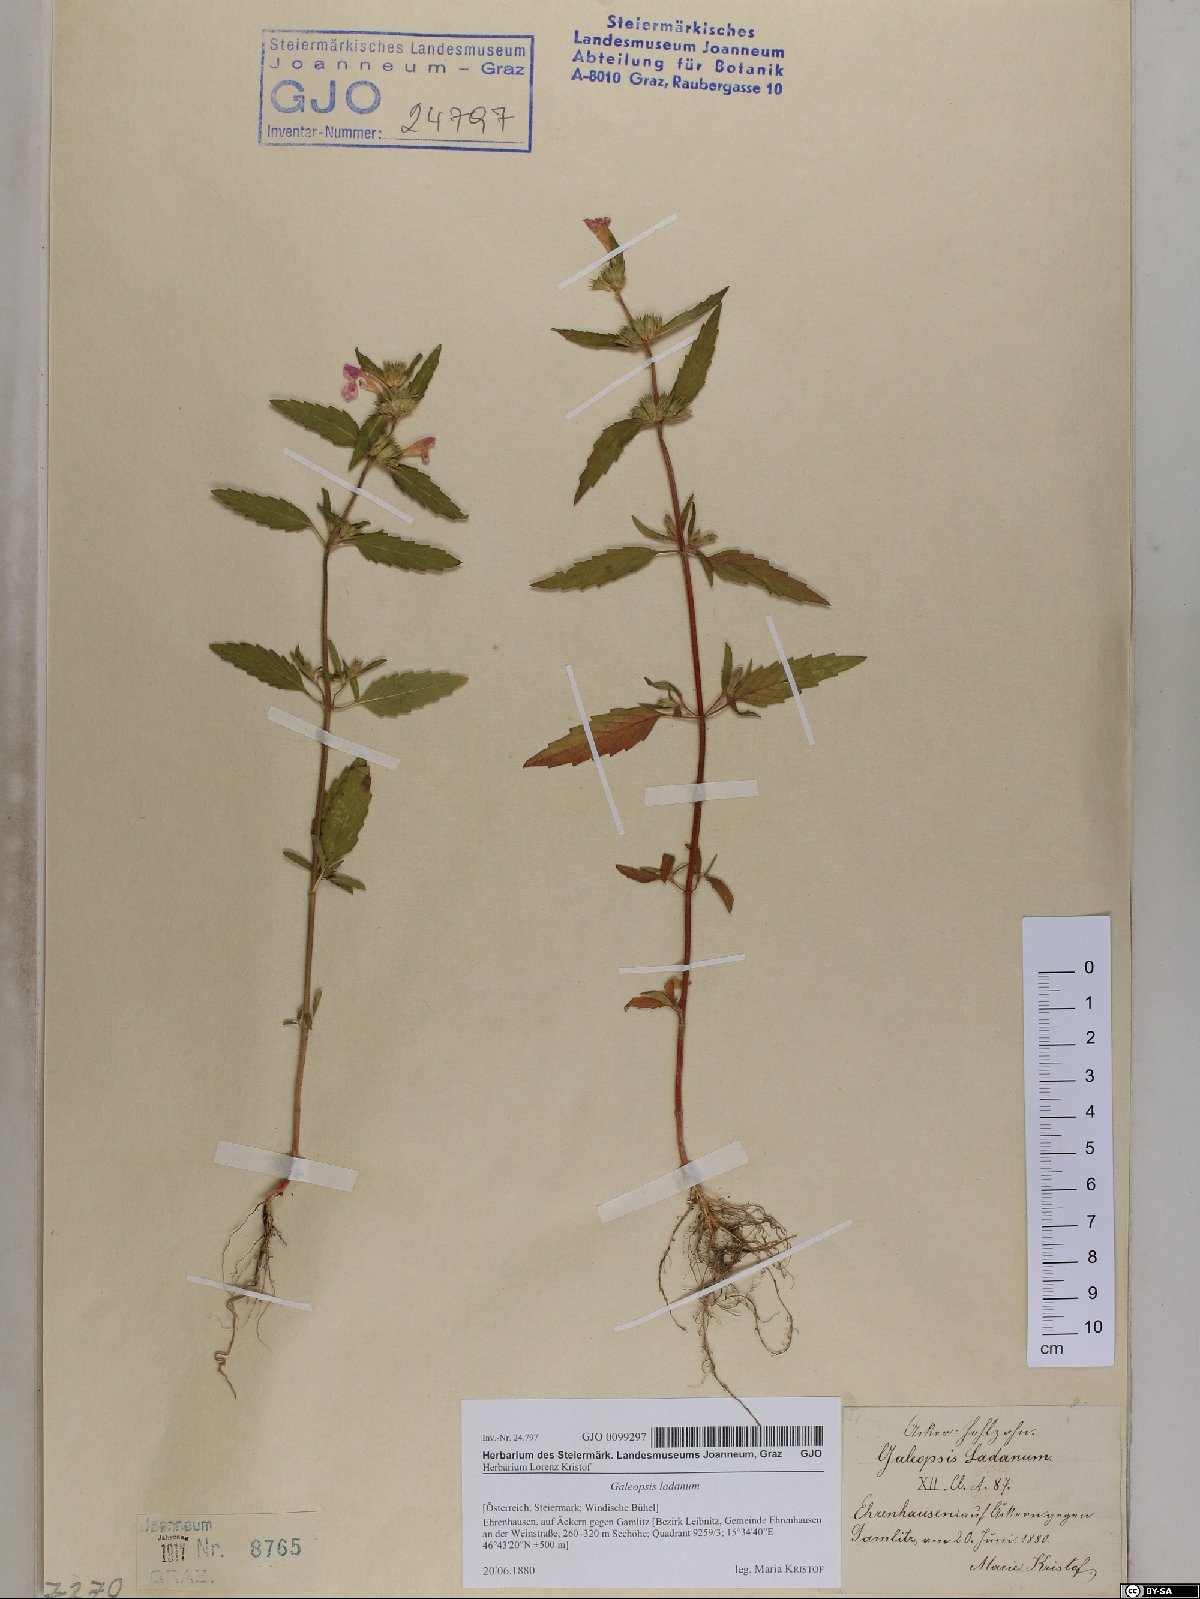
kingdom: Plantae
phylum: Tracheophyta
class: Magnoliopsida
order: Lamiales
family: Lamiaceae
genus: Galeopsis
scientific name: Galeopsis ladanum
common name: Broad-leaved hemp-nettle
